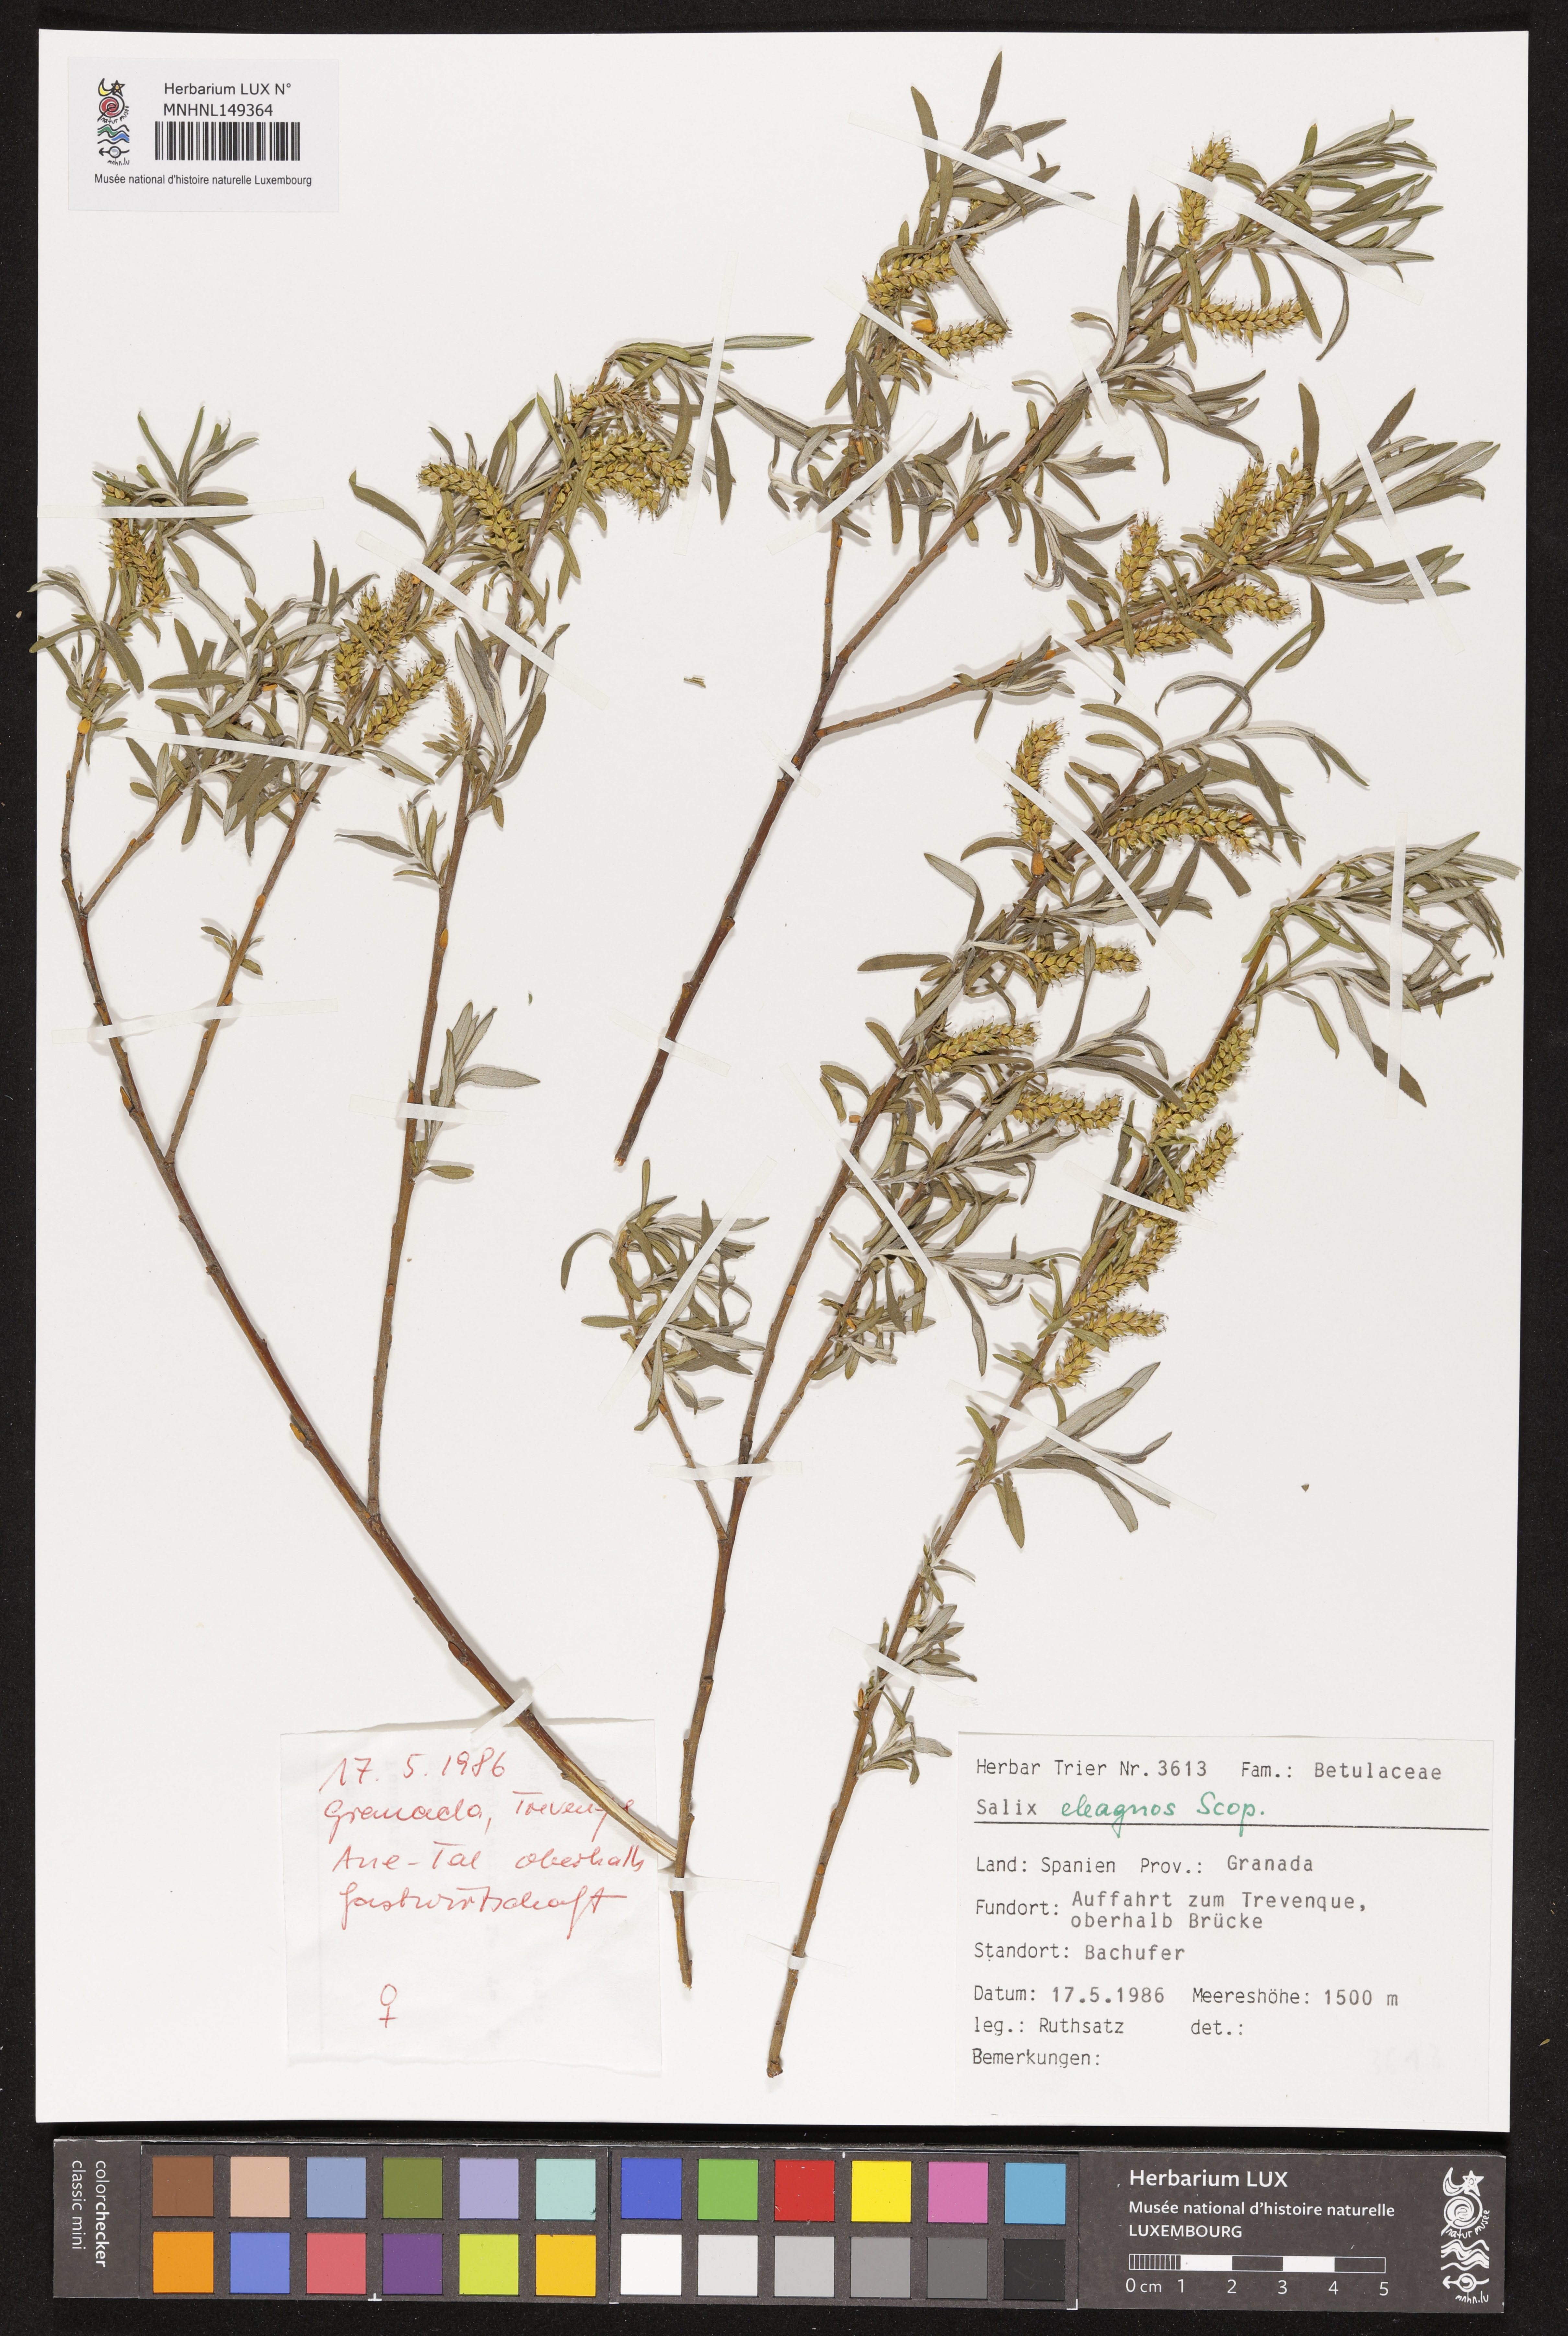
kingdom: Plantae
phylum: Tracheophyta
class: Magnoliopsida
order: Malpighiales
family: Salicaceae
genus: Salix
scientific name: Salix eleagnos
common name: Elaeagnus willow
